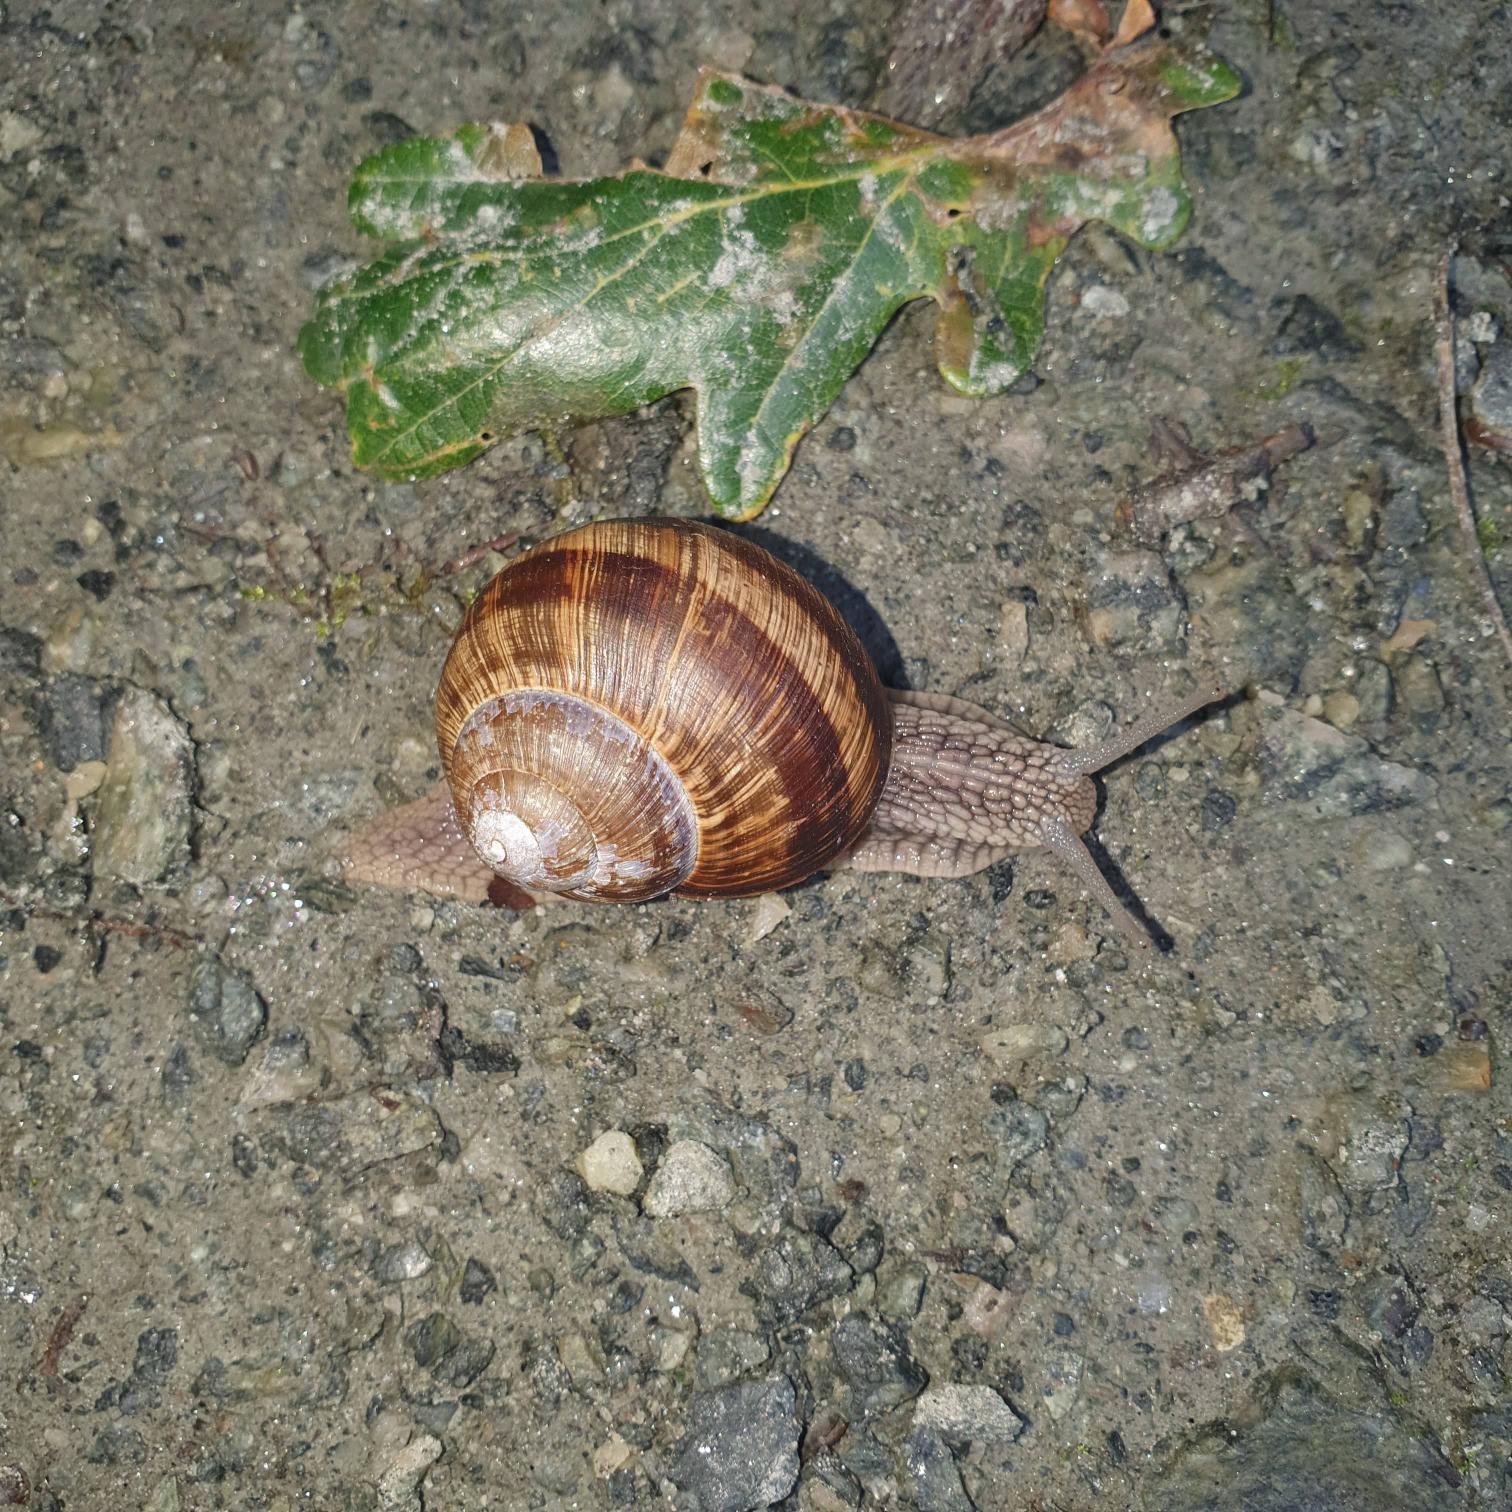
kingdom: Animalia
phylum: Mollusca
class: Gastropoda
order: Stylommatophora
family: Helicidae
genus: Helix
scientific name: Helix pomatia
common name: Vinbjergsnegl
